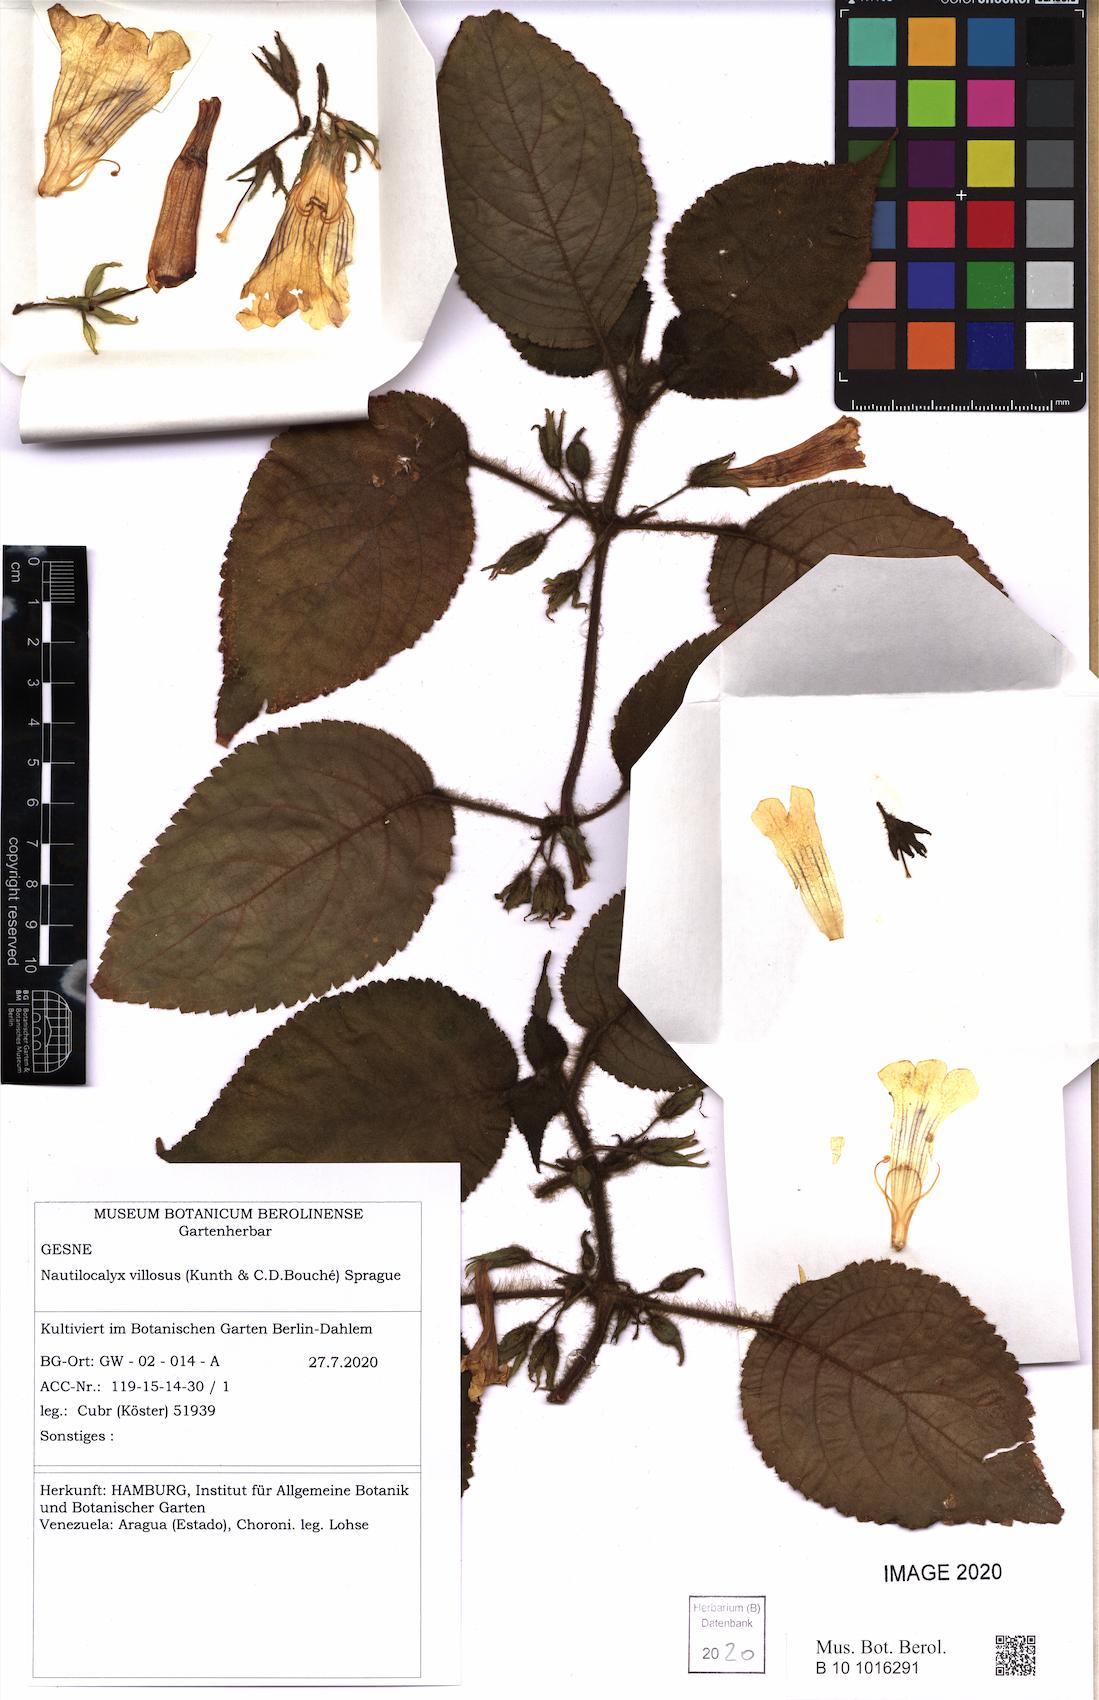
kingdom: Plantae
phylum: Tracheophyta
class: Magnoliopsida
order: Lamiales
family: Gesneriaceae
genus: Nautilocalyx
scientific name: Nautilocalyx villosus
